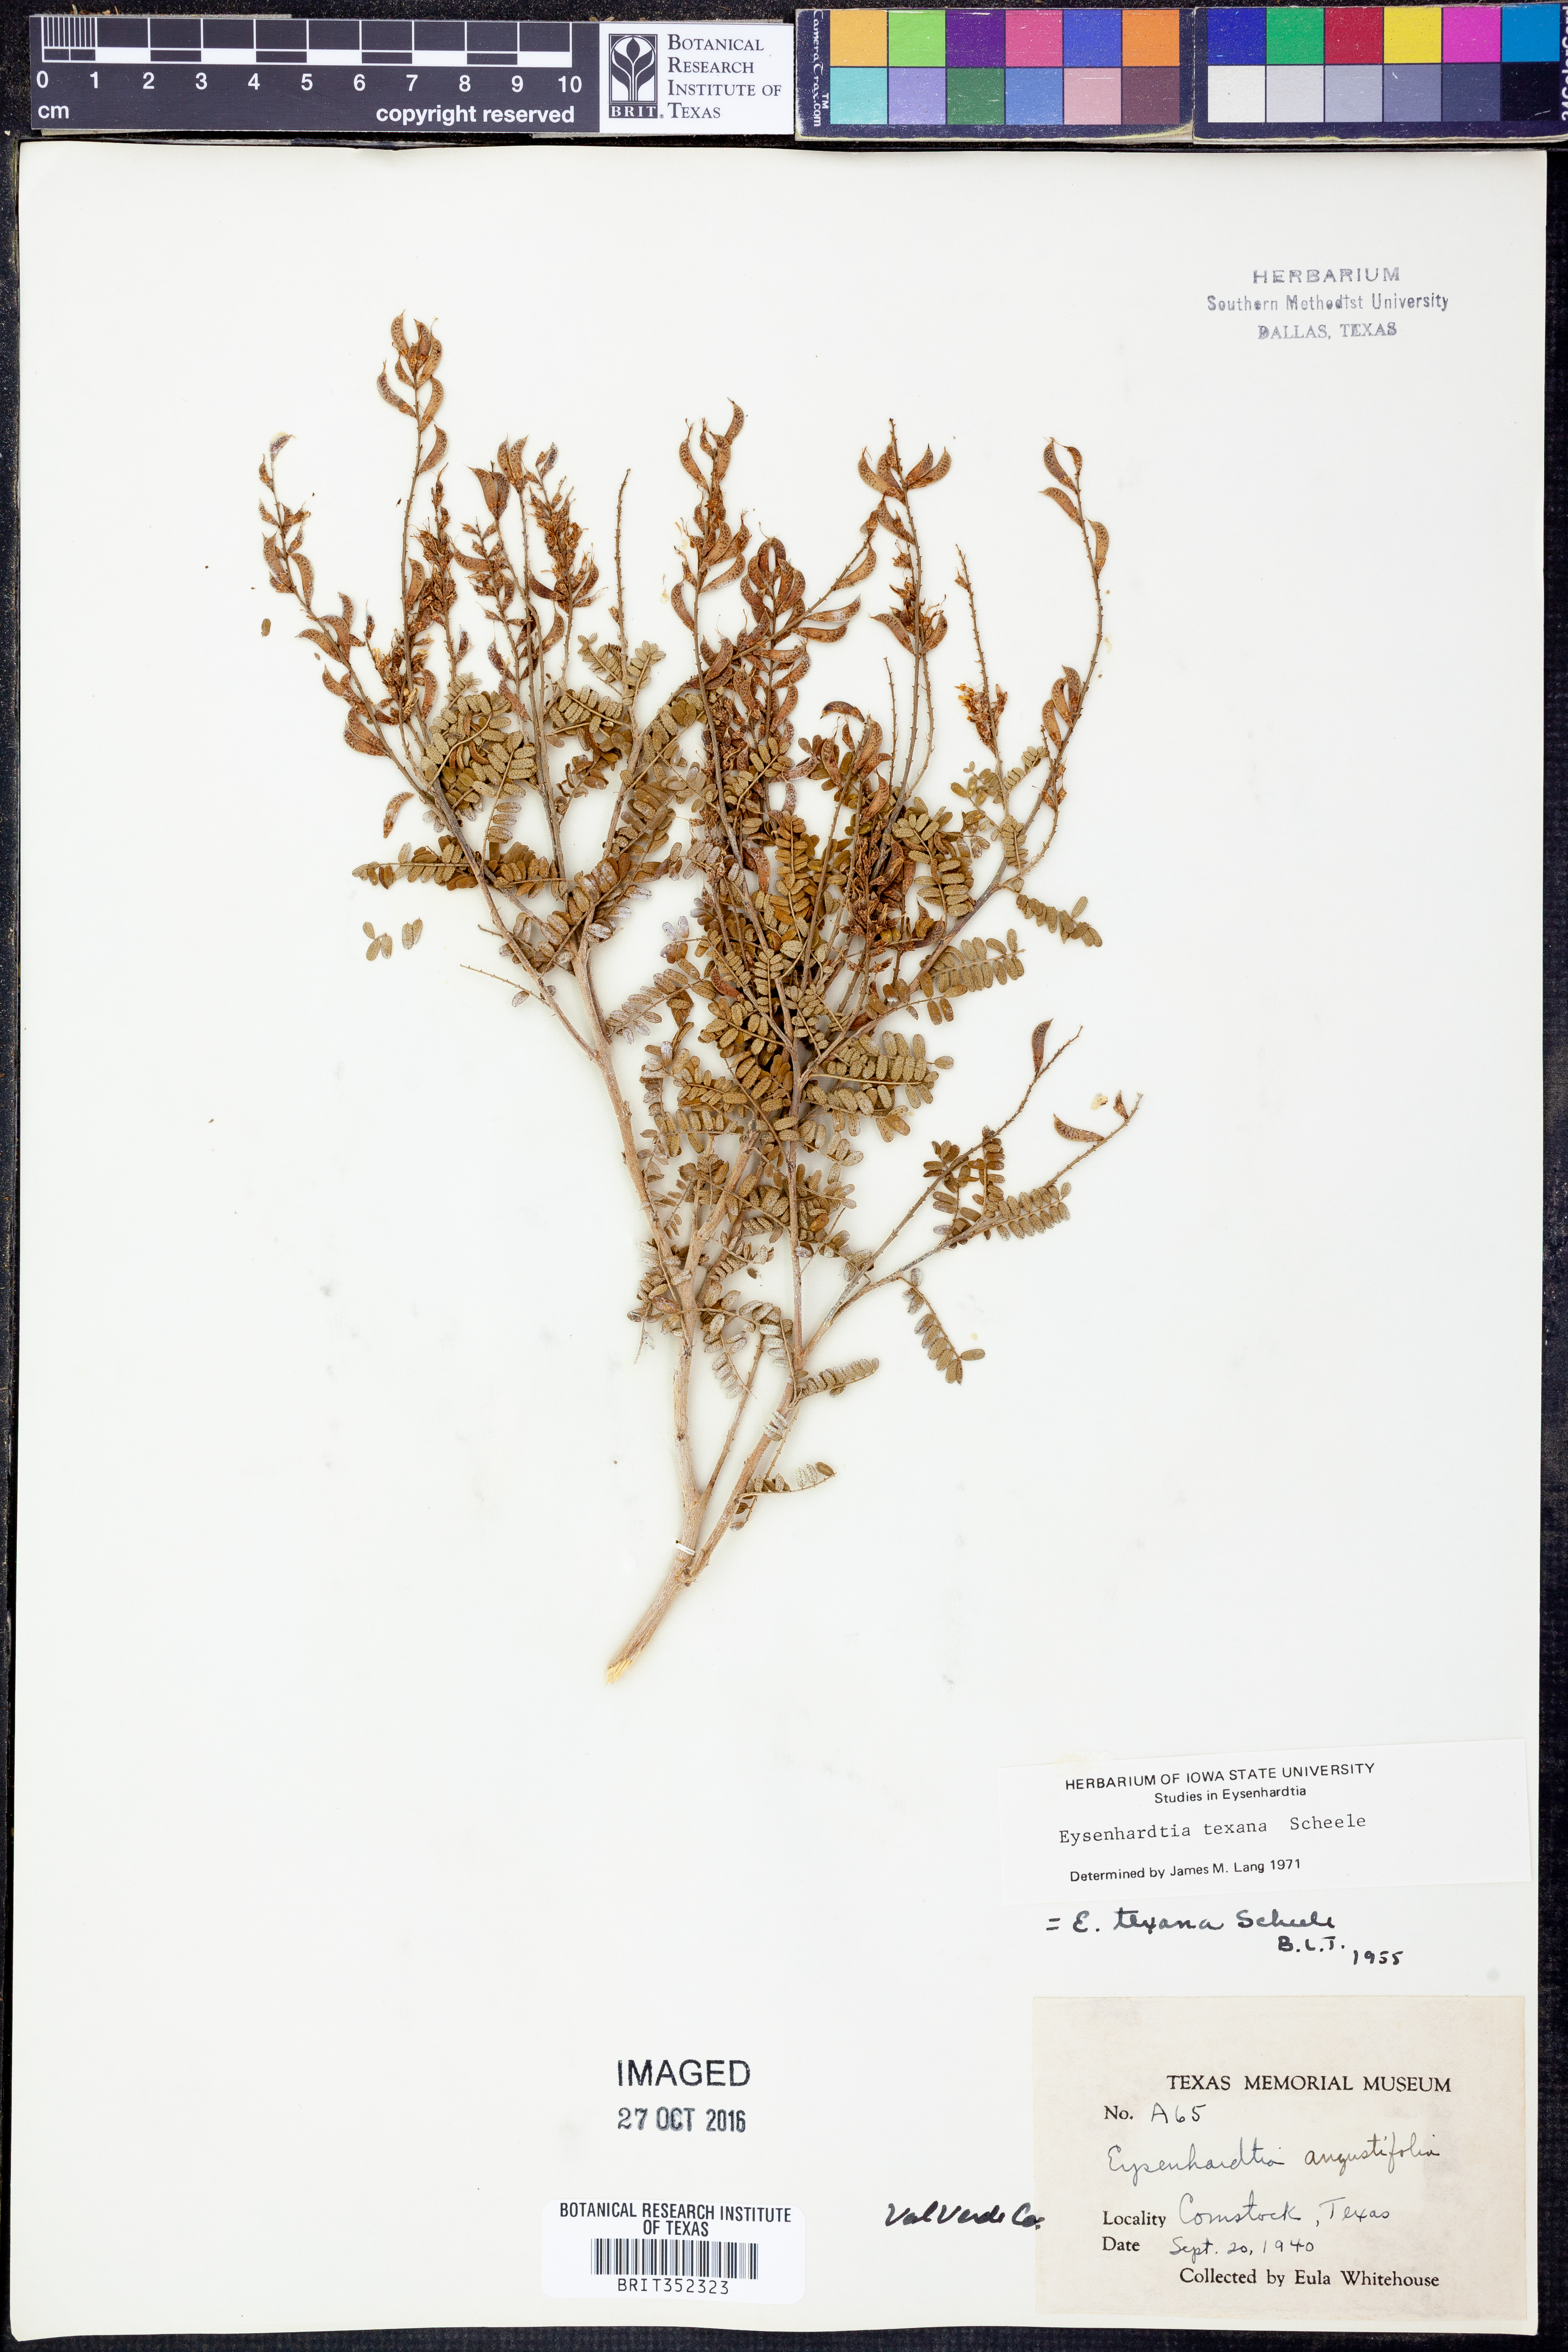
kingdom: Plantae
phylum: Tracheophyta
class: Magnoliopsida
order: Fabales
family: Fabaceae
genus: Eysenhardtia
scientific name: Eysenhardtia texana
